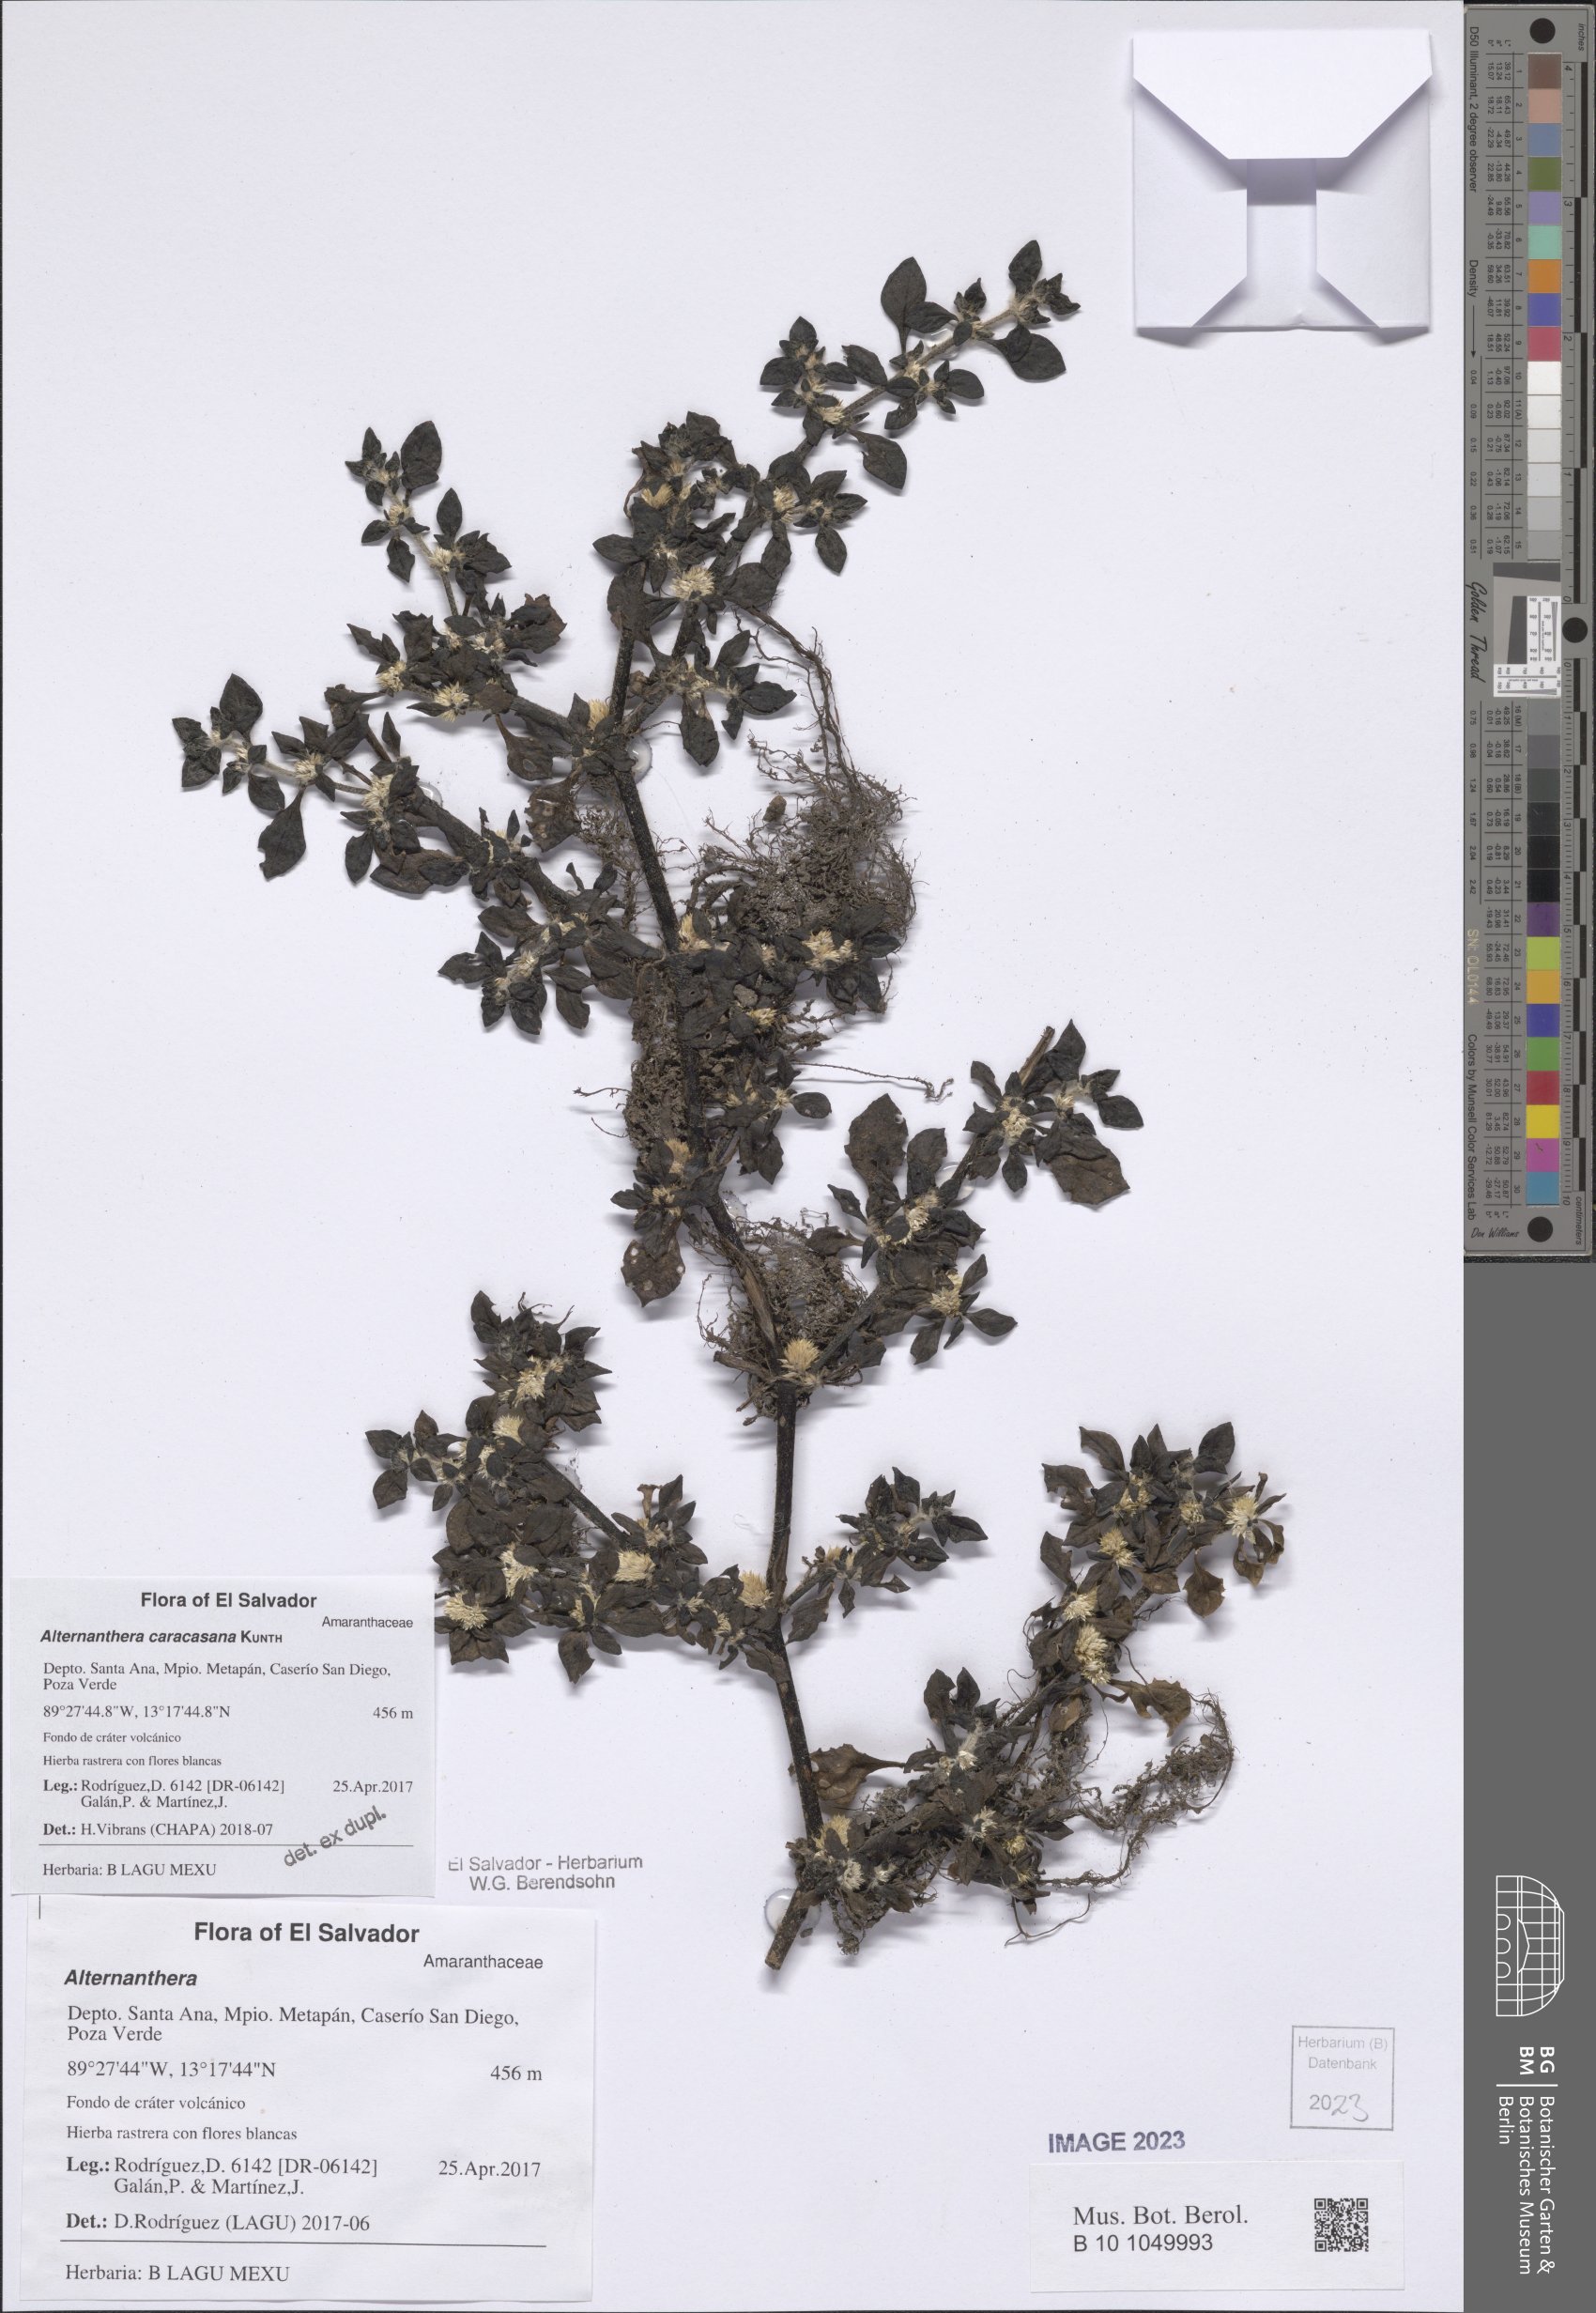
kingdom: Plantae
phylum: Tracheophyta
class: Magnoliopsida
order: Caryophyllales
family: Amaranthaceae
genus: Alternanthera
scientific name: Alternanthera caracasana
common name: Washerwoman
